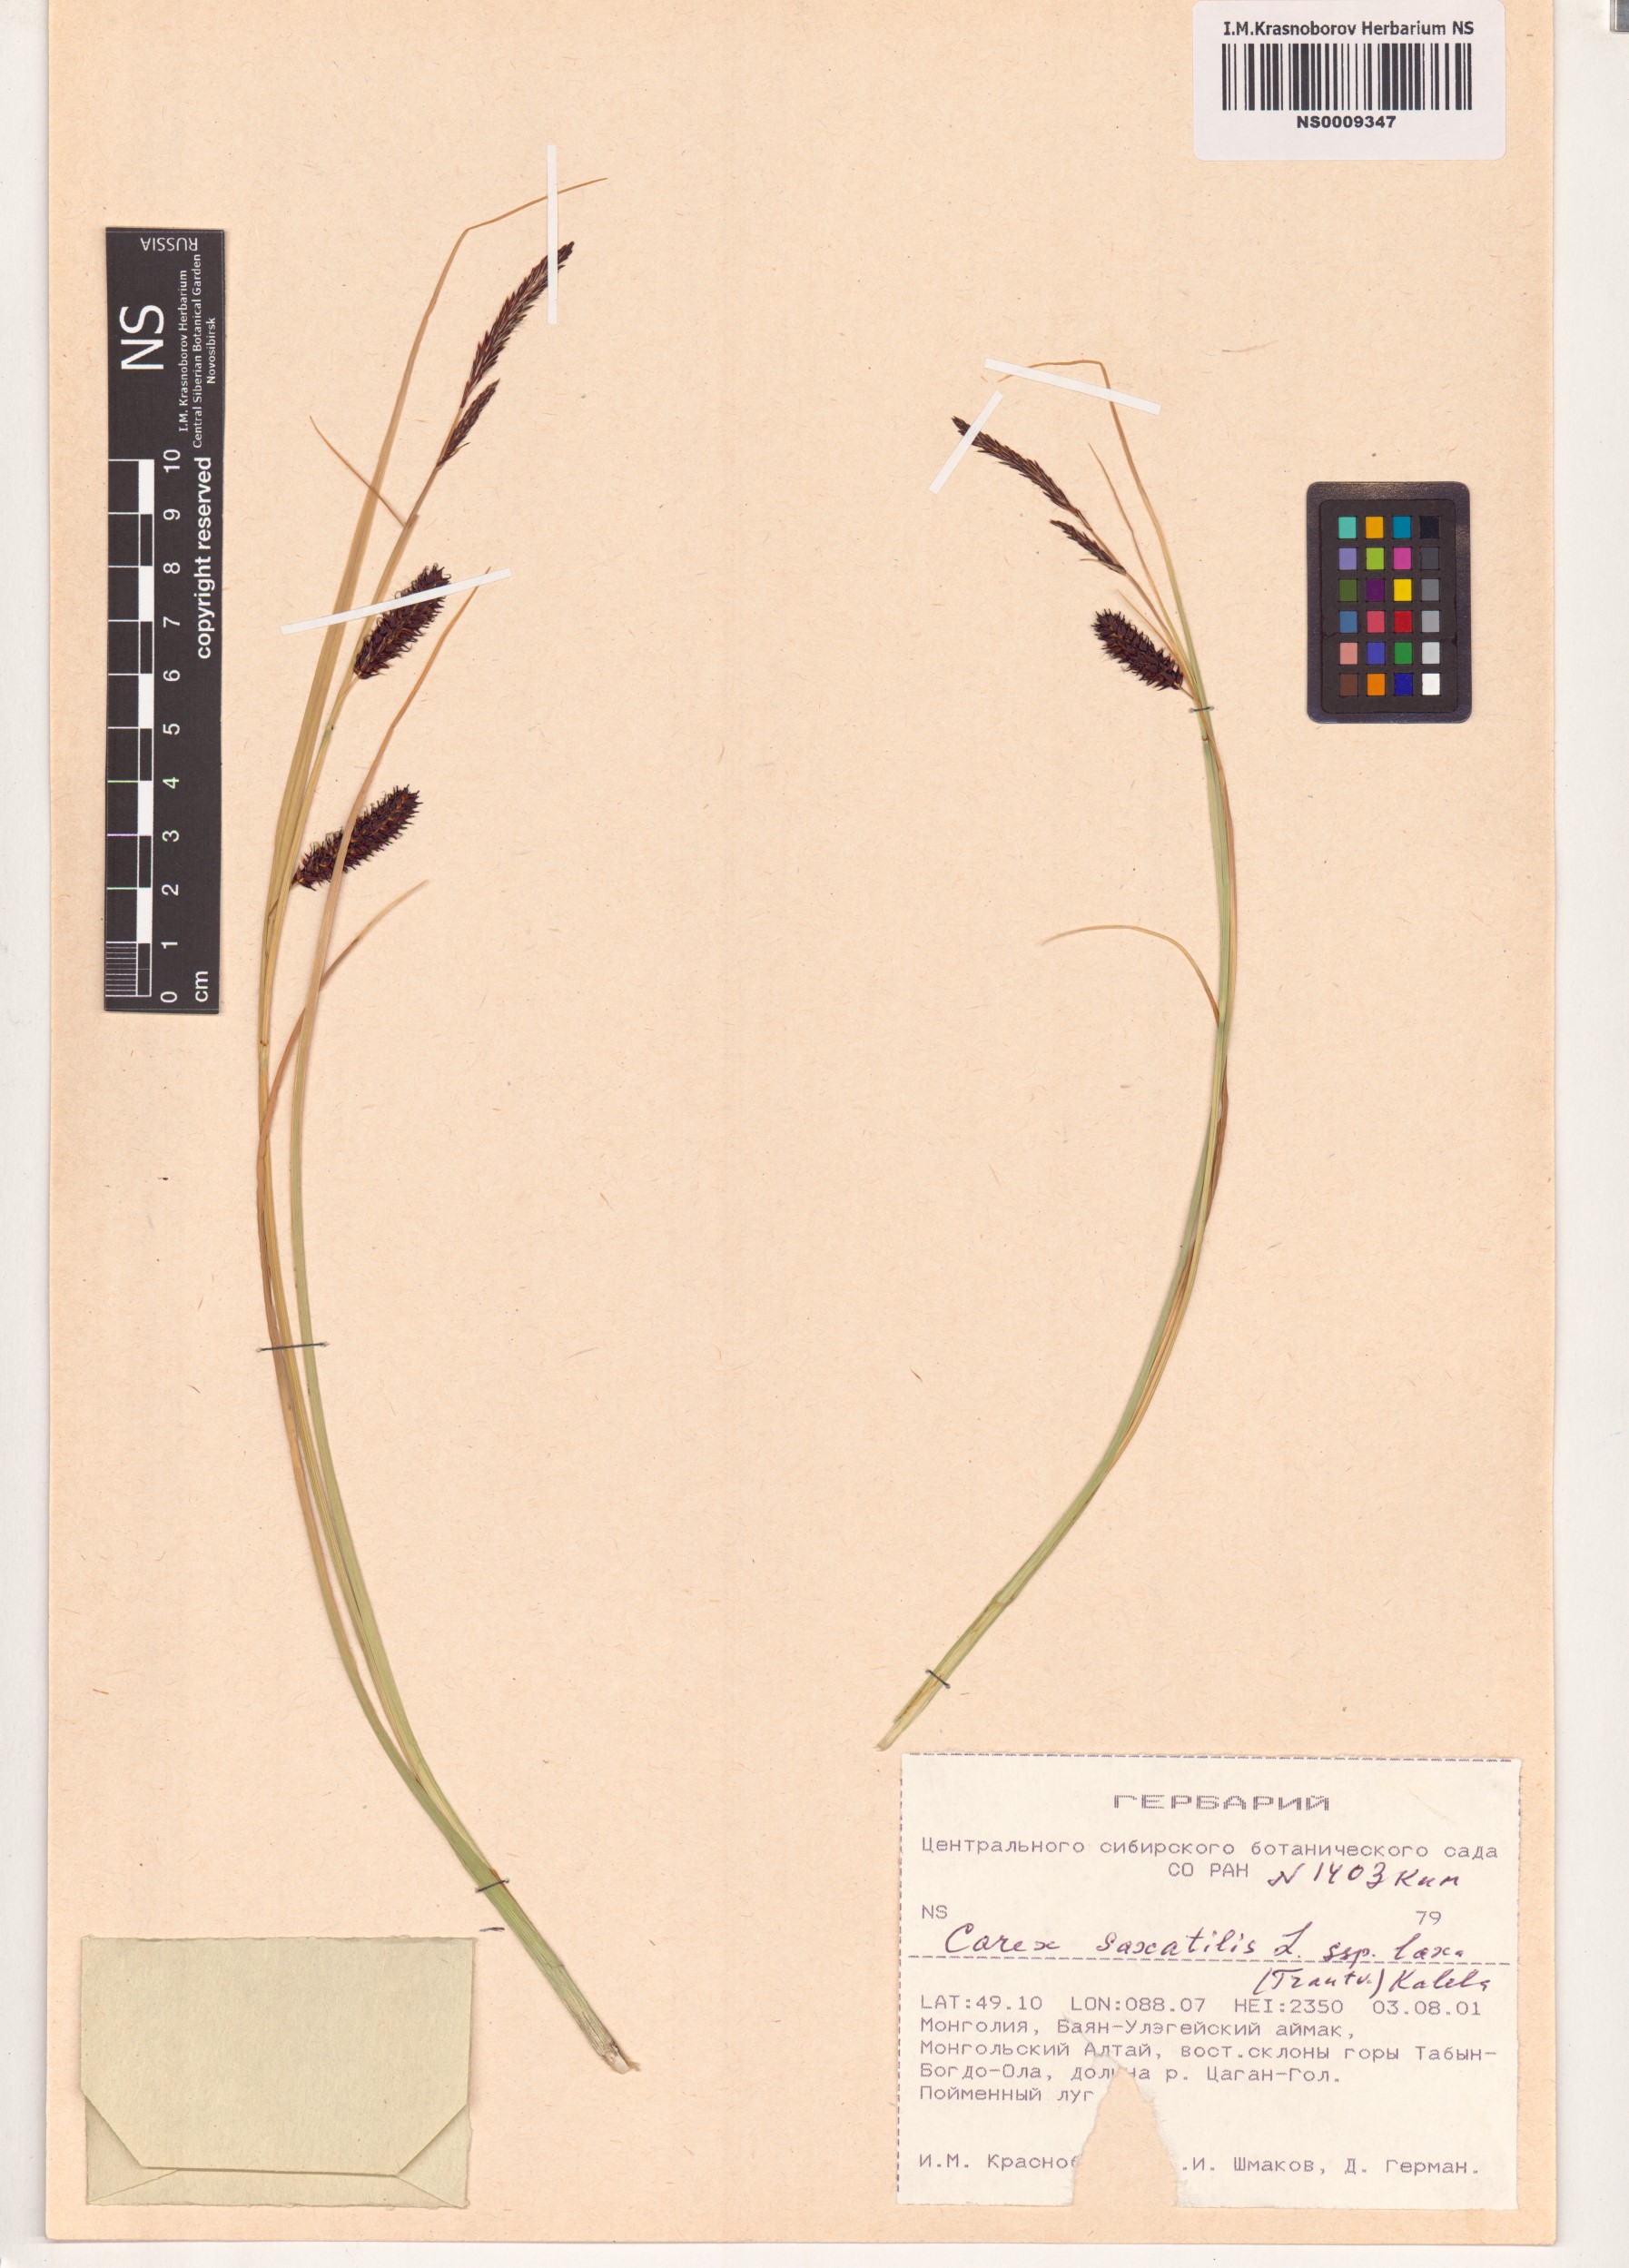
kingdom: Plantae
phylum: Tracheophyta
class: Liliopsida
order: Poales
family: Cyperaceae
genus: Carex
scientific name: Carex saxatilis
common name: Russet sedge
